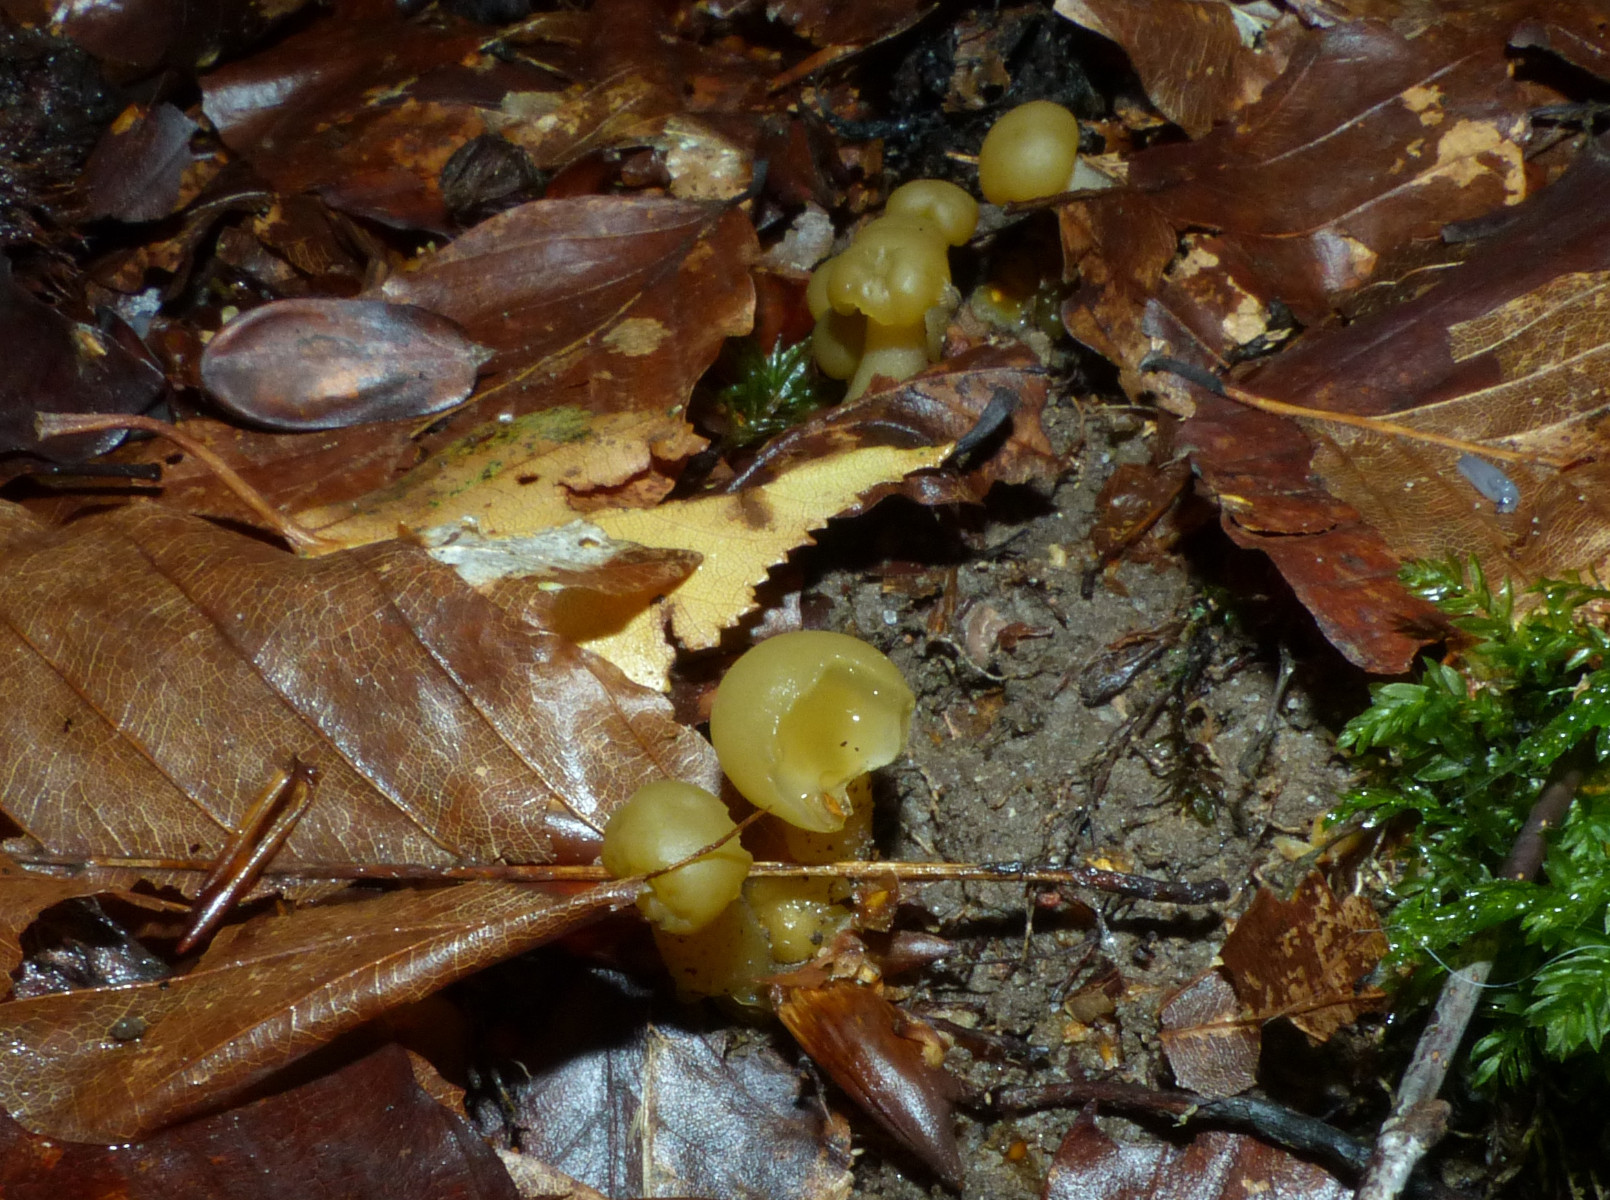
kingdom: Fungi
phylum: Ascomycota
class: Leotiomycetes
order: Leotiales
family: Leotiaceae
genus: Leotia
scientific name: Leotia lubrica
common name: ravsvamp
